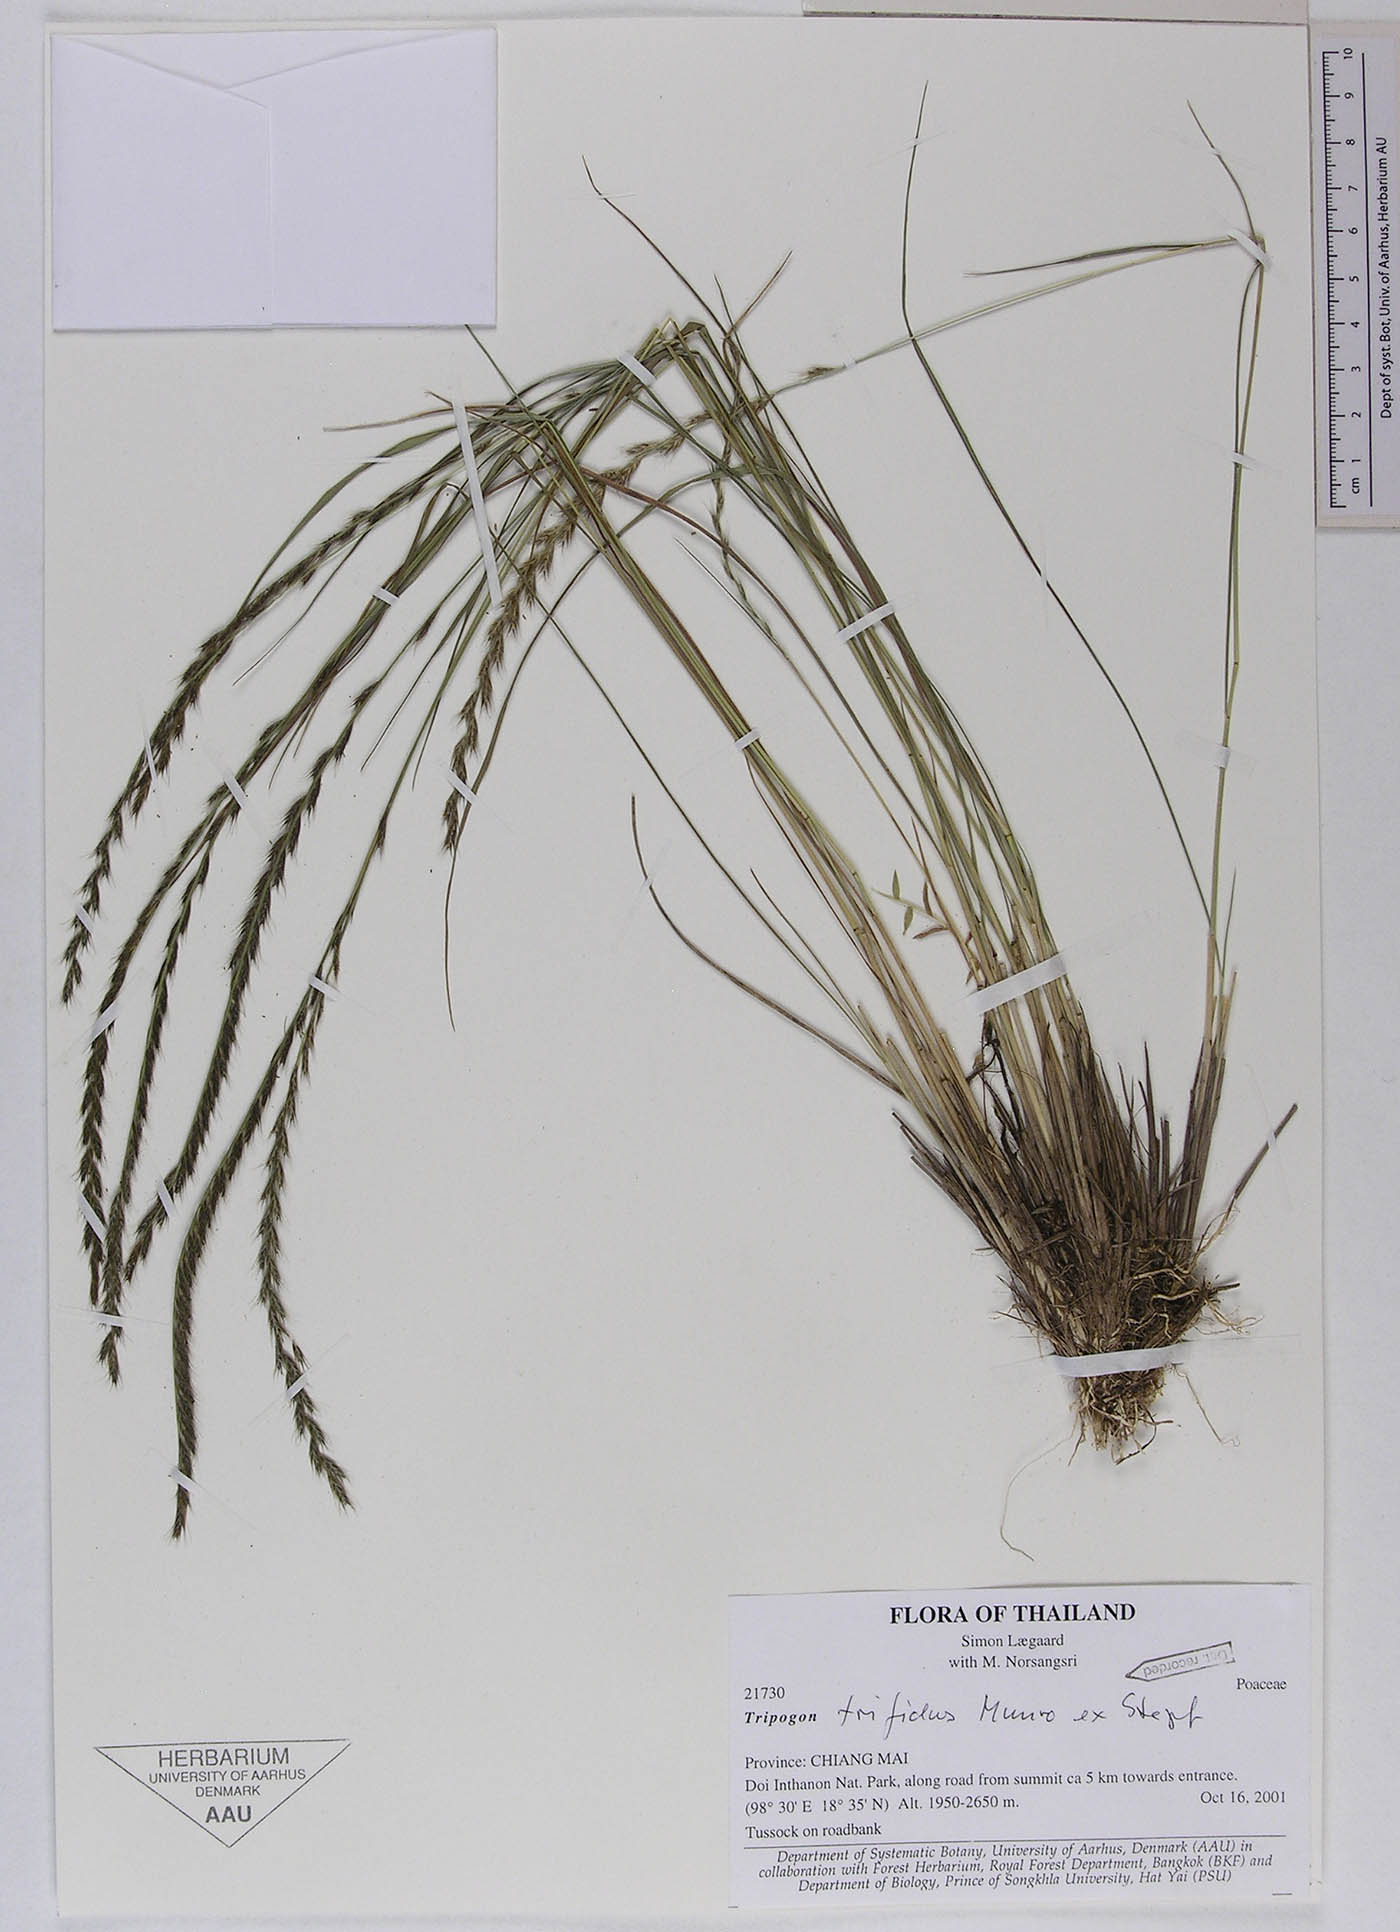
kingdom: Plantae
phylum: Tracheophyta
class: Liliopsida
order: Poales
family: Poaceae
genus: Tripogon
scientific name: Tripogon trifidus
